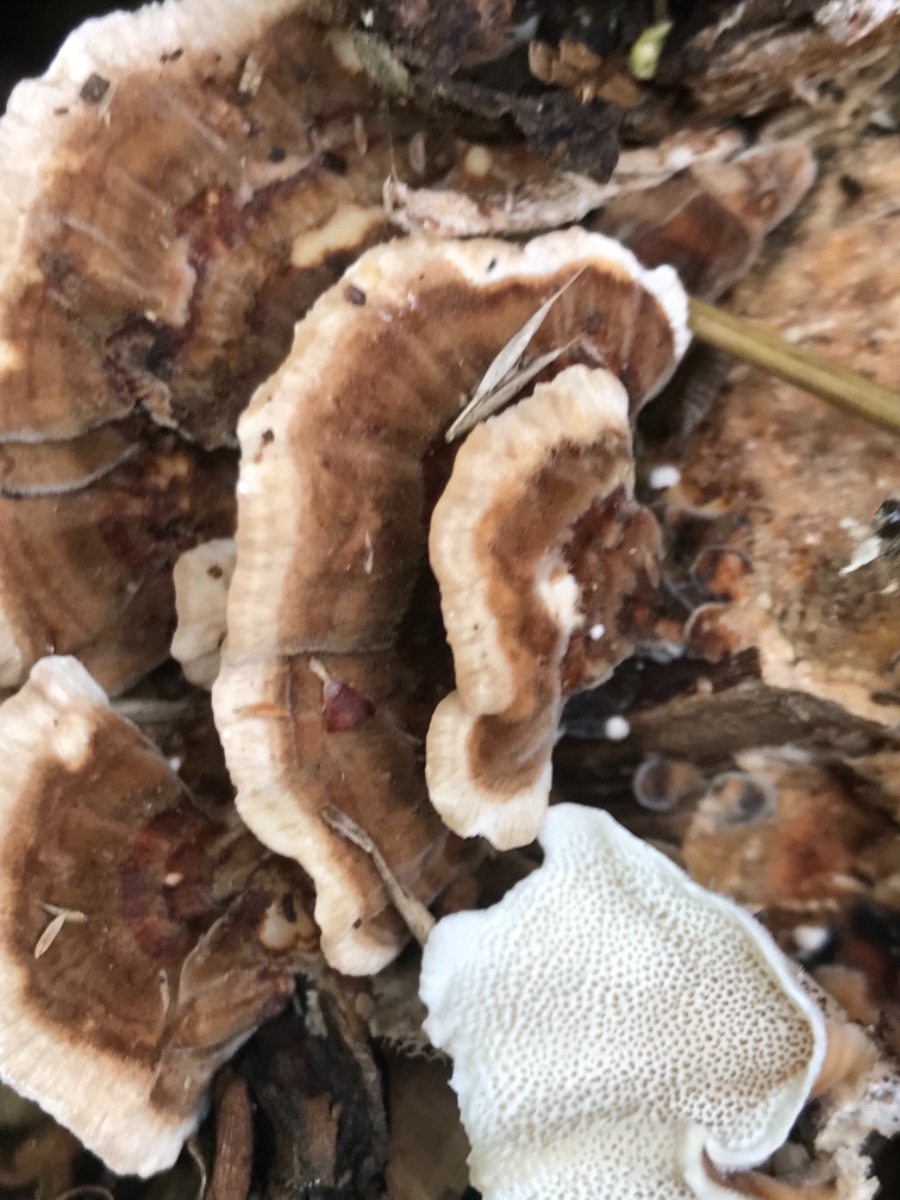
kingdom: Fungi
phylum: Basidiomycota
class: Agaricomycetes
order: Polyporales
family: Polyporaceae
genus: Trametes
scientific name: Trametes versicolor
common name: broget læderporesvamp
